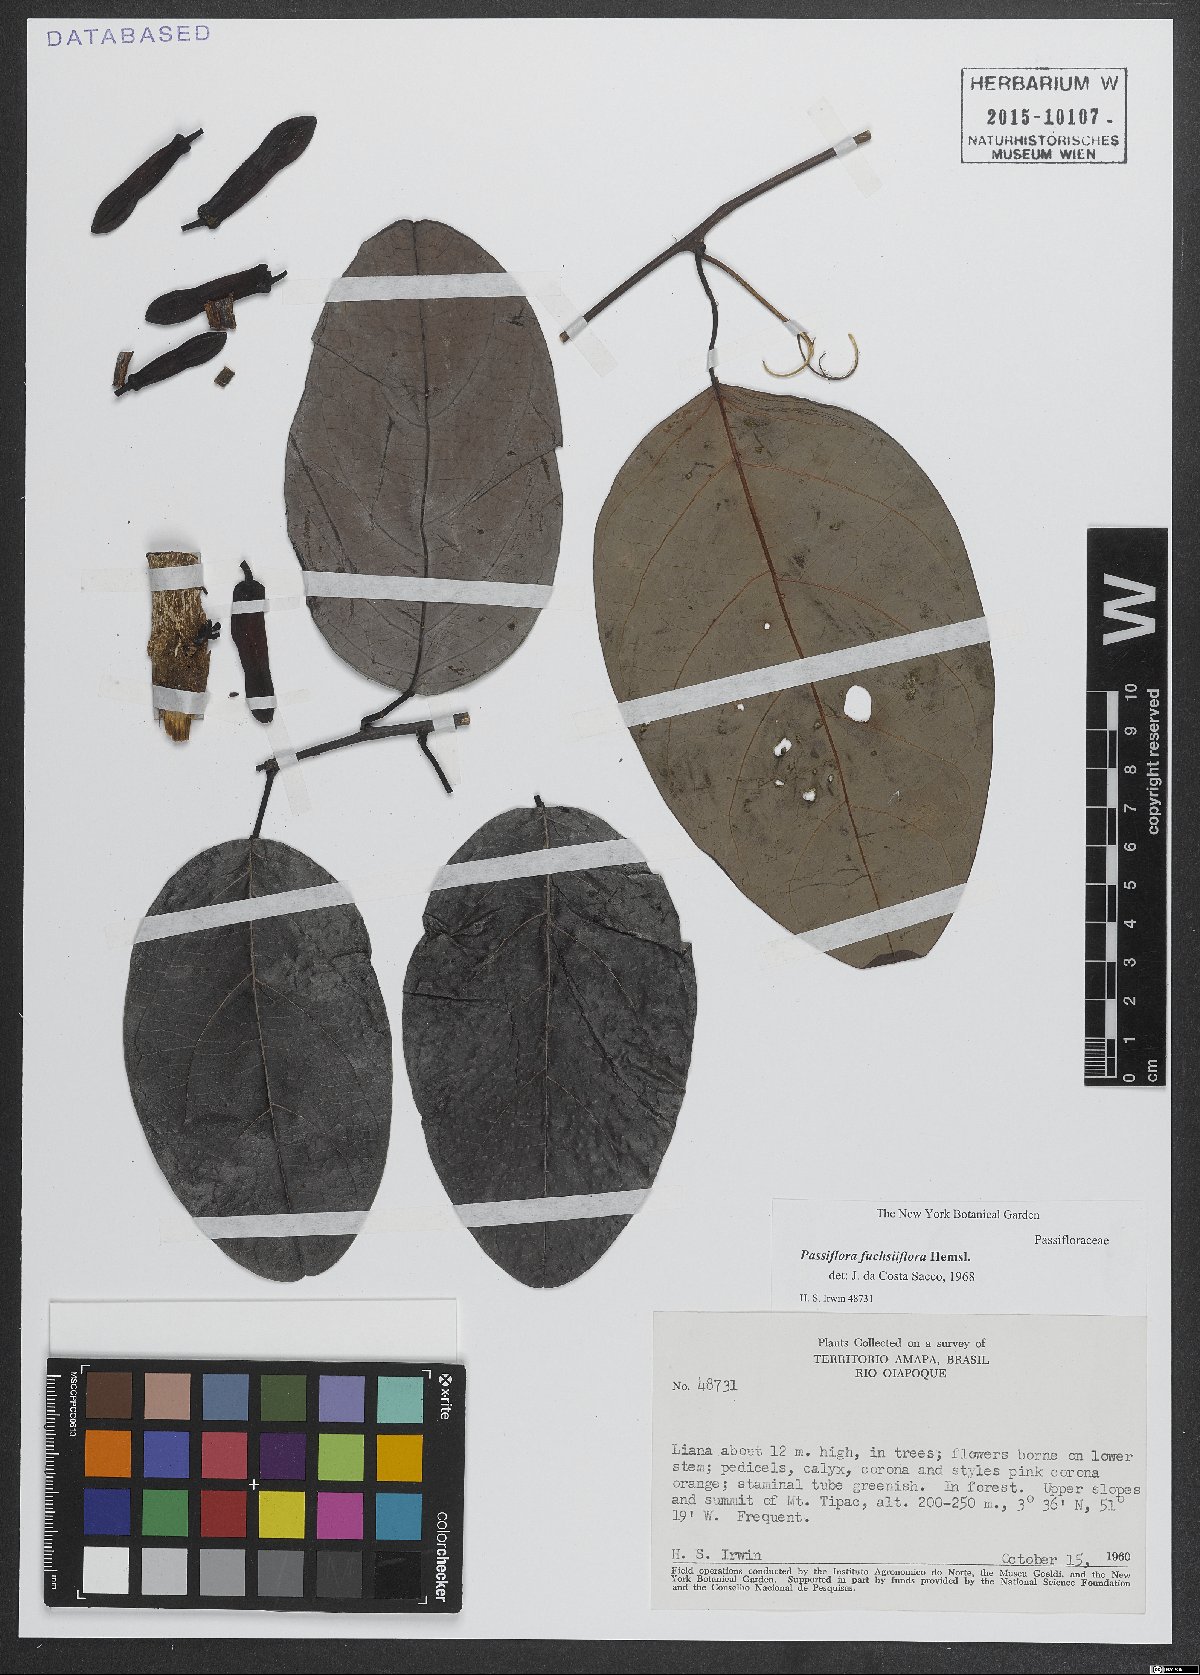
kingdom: Plantae
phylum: Tracheophyta
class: Magnoliopsida
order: Malpighiales
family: Passifloraceae
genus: Passiflora
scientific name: Passiflora fuchsiiflora
